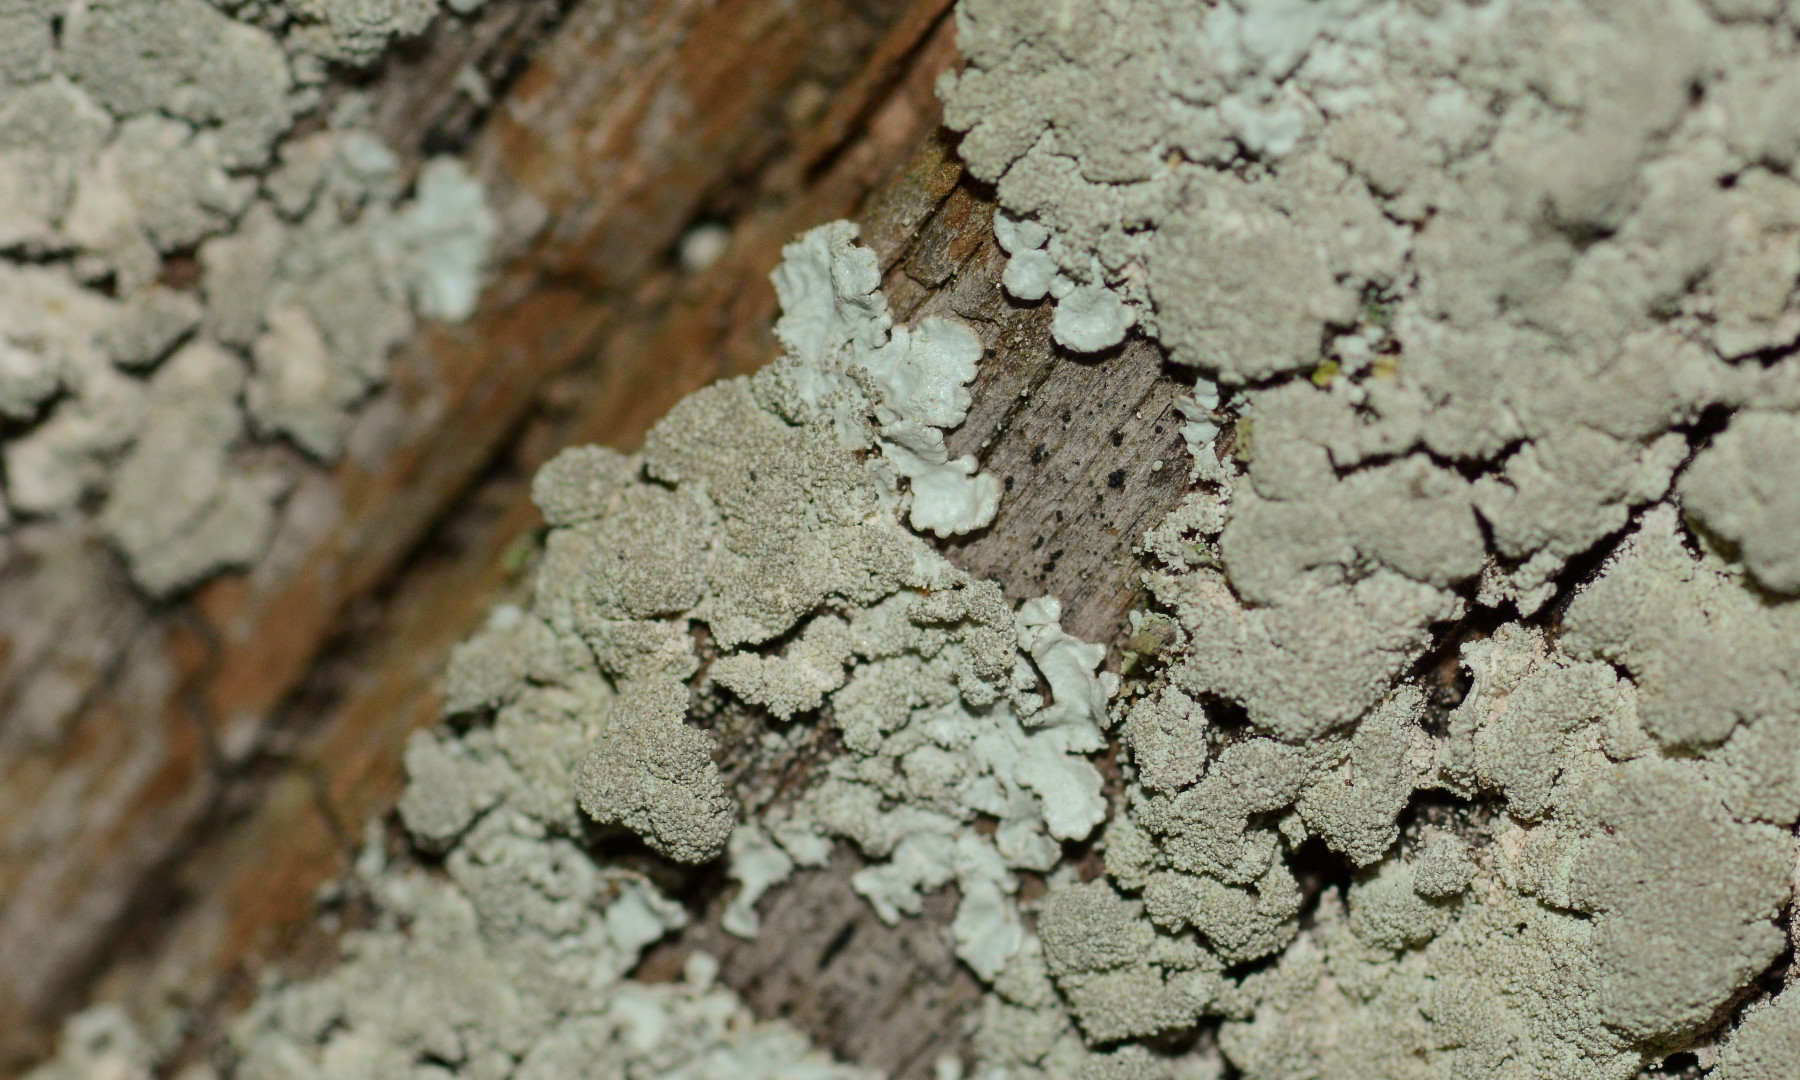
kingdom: Fungi
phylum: Ascomycota
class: Lecanoromycetes
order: Lecanorales
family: Parmeliaceae
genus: Imshaugia
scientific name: Imshaugia aleurites
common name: kliddet stolpelav
